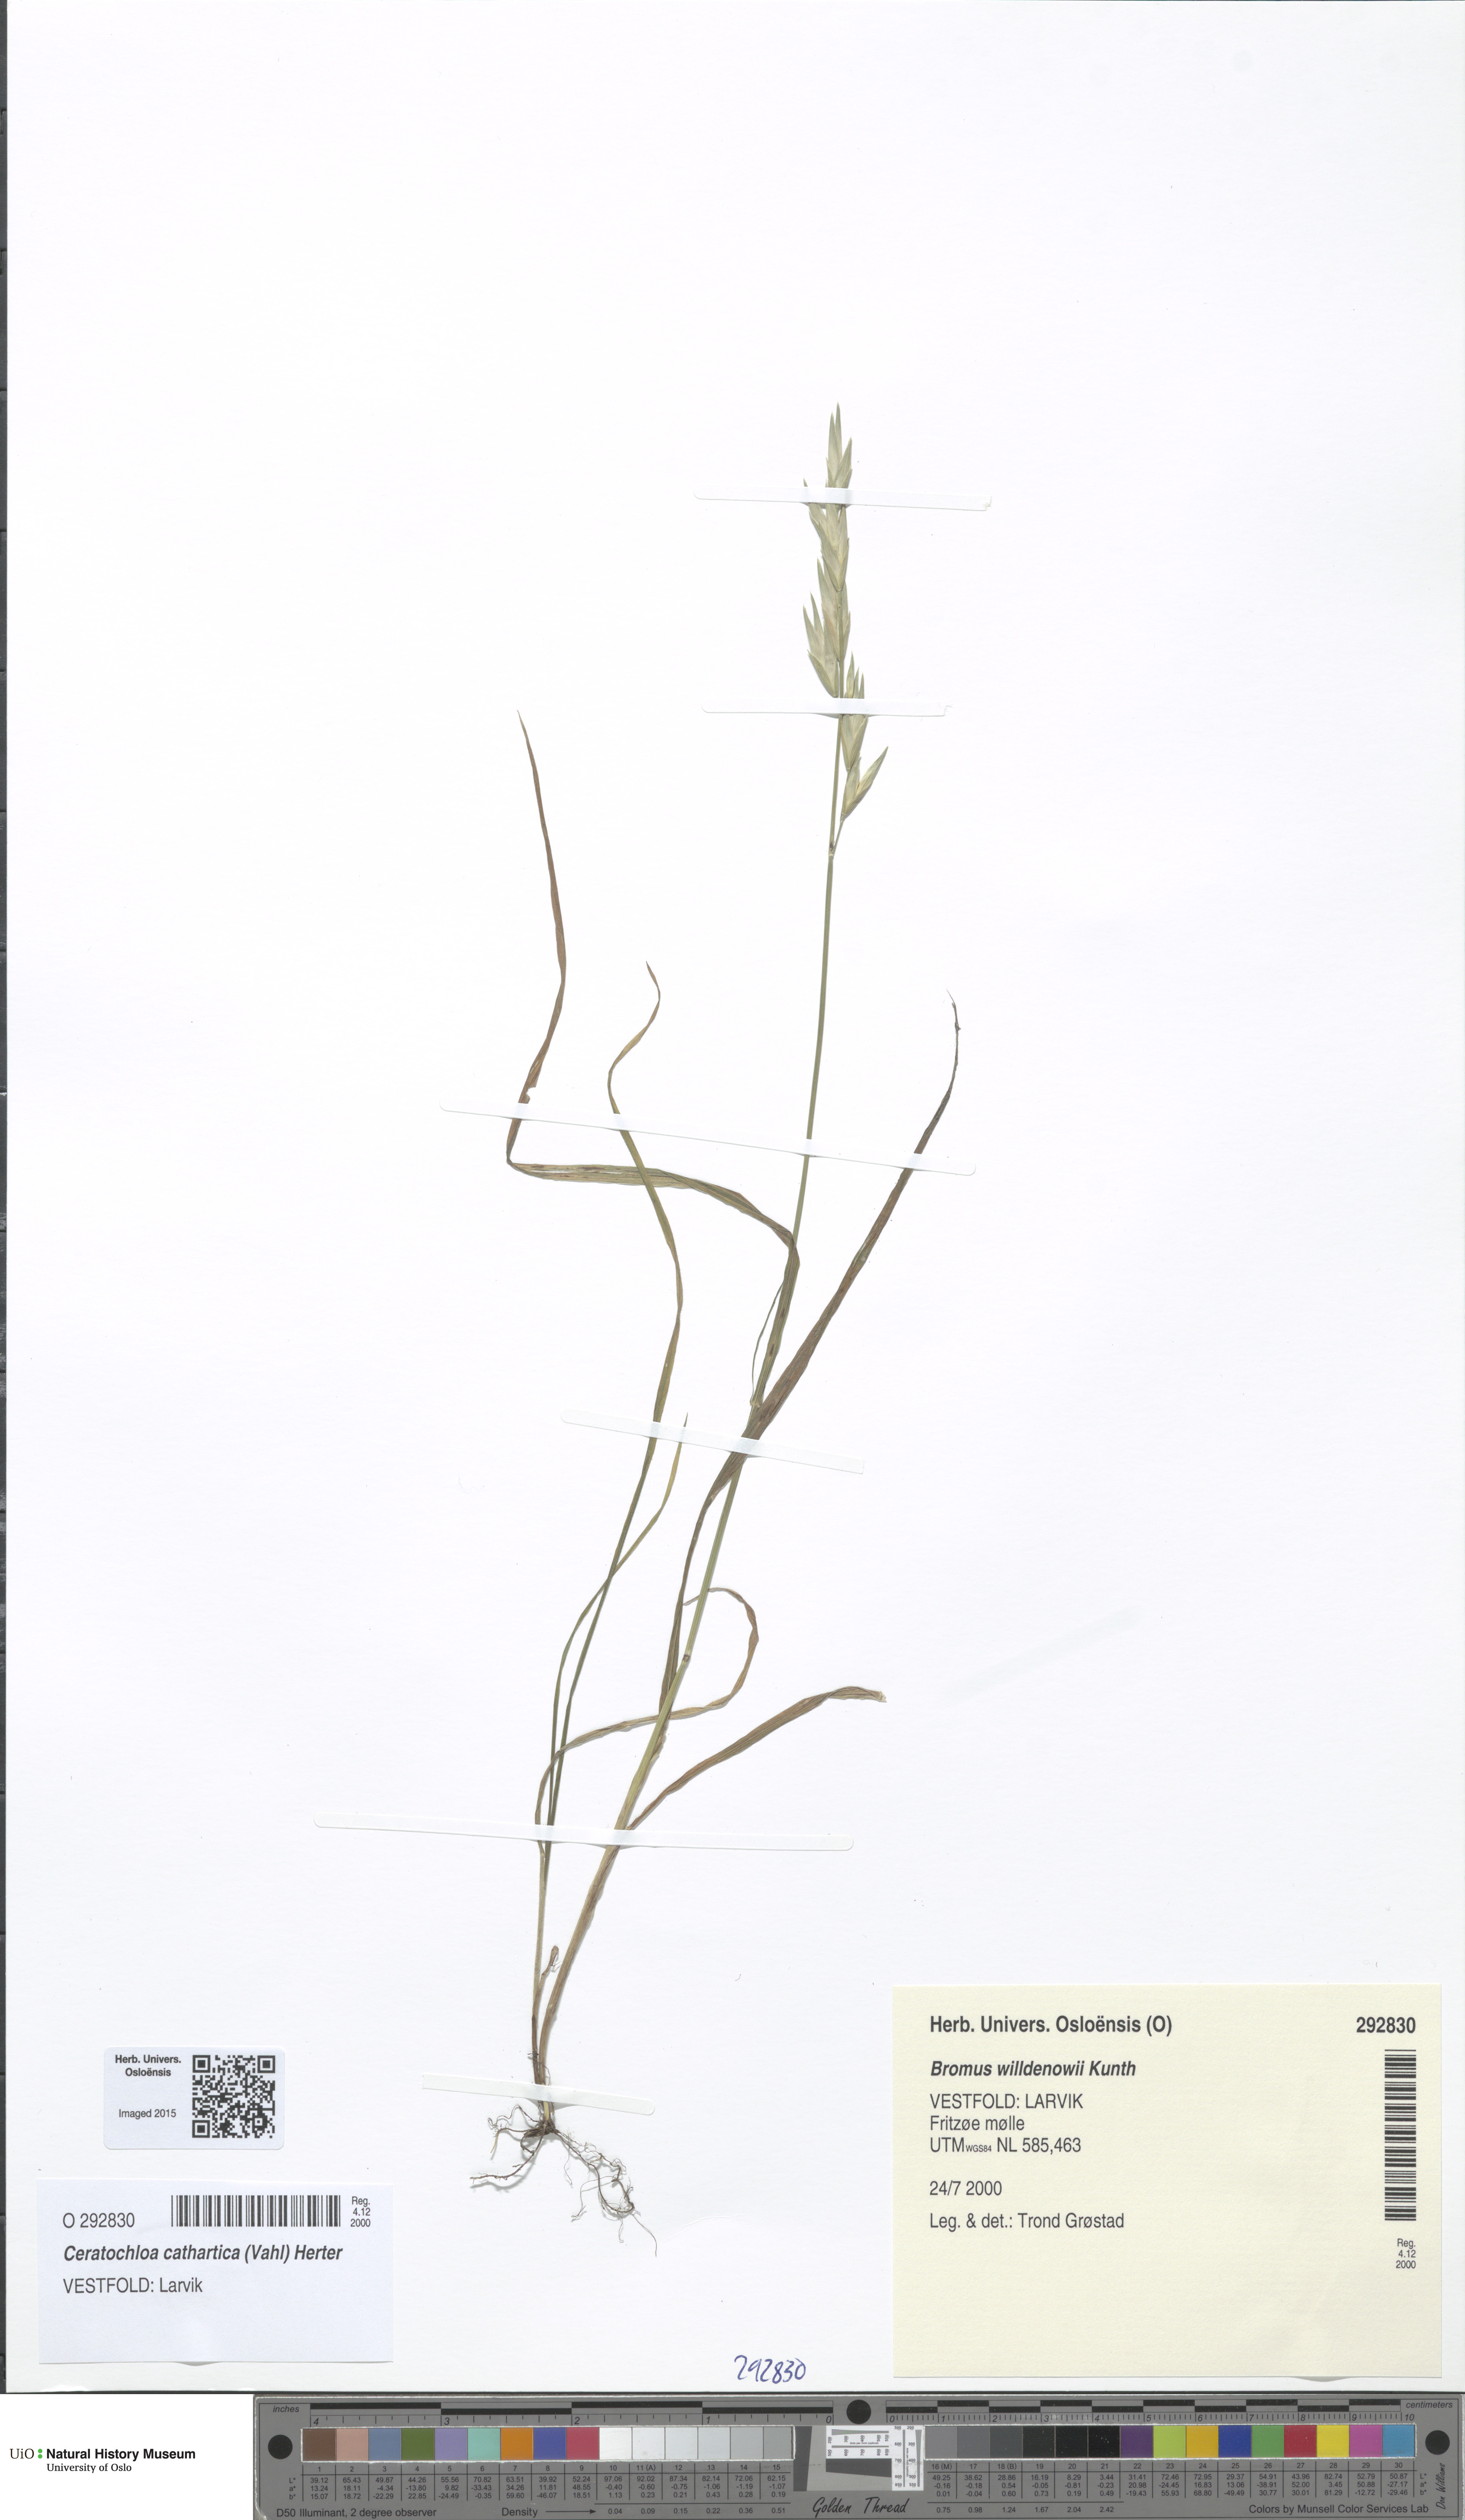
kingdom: Plantae
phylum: Tracheophyta
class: Liliopsida
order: Poales
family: Poaceae
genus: Bromus
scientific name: Bromus catharticus
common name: Rescuegrass
